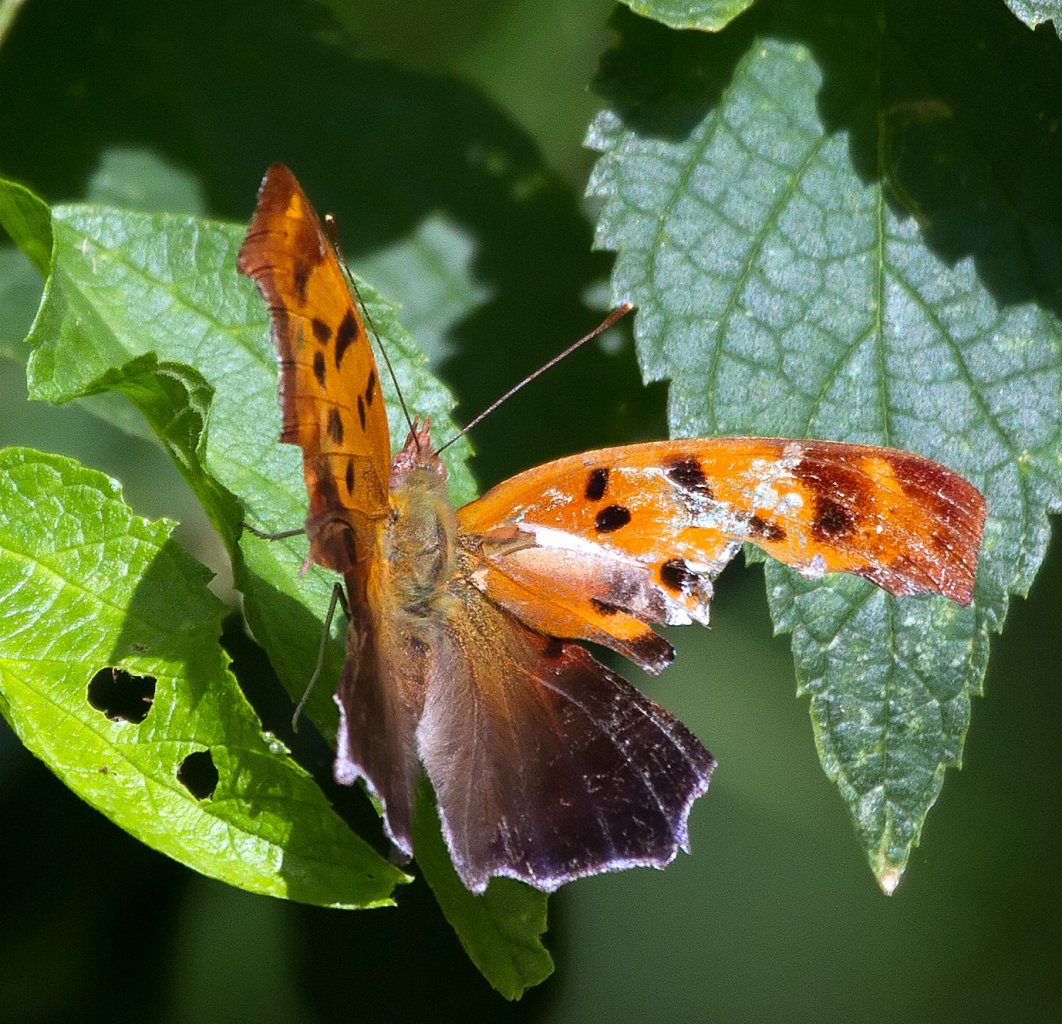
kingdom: Animalia
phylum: Arthropoda
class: Insecta
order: Lepidoptera
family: Nymphalidae
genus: Polygonia
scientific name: Polygonia interrogationis
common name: Question Mark
